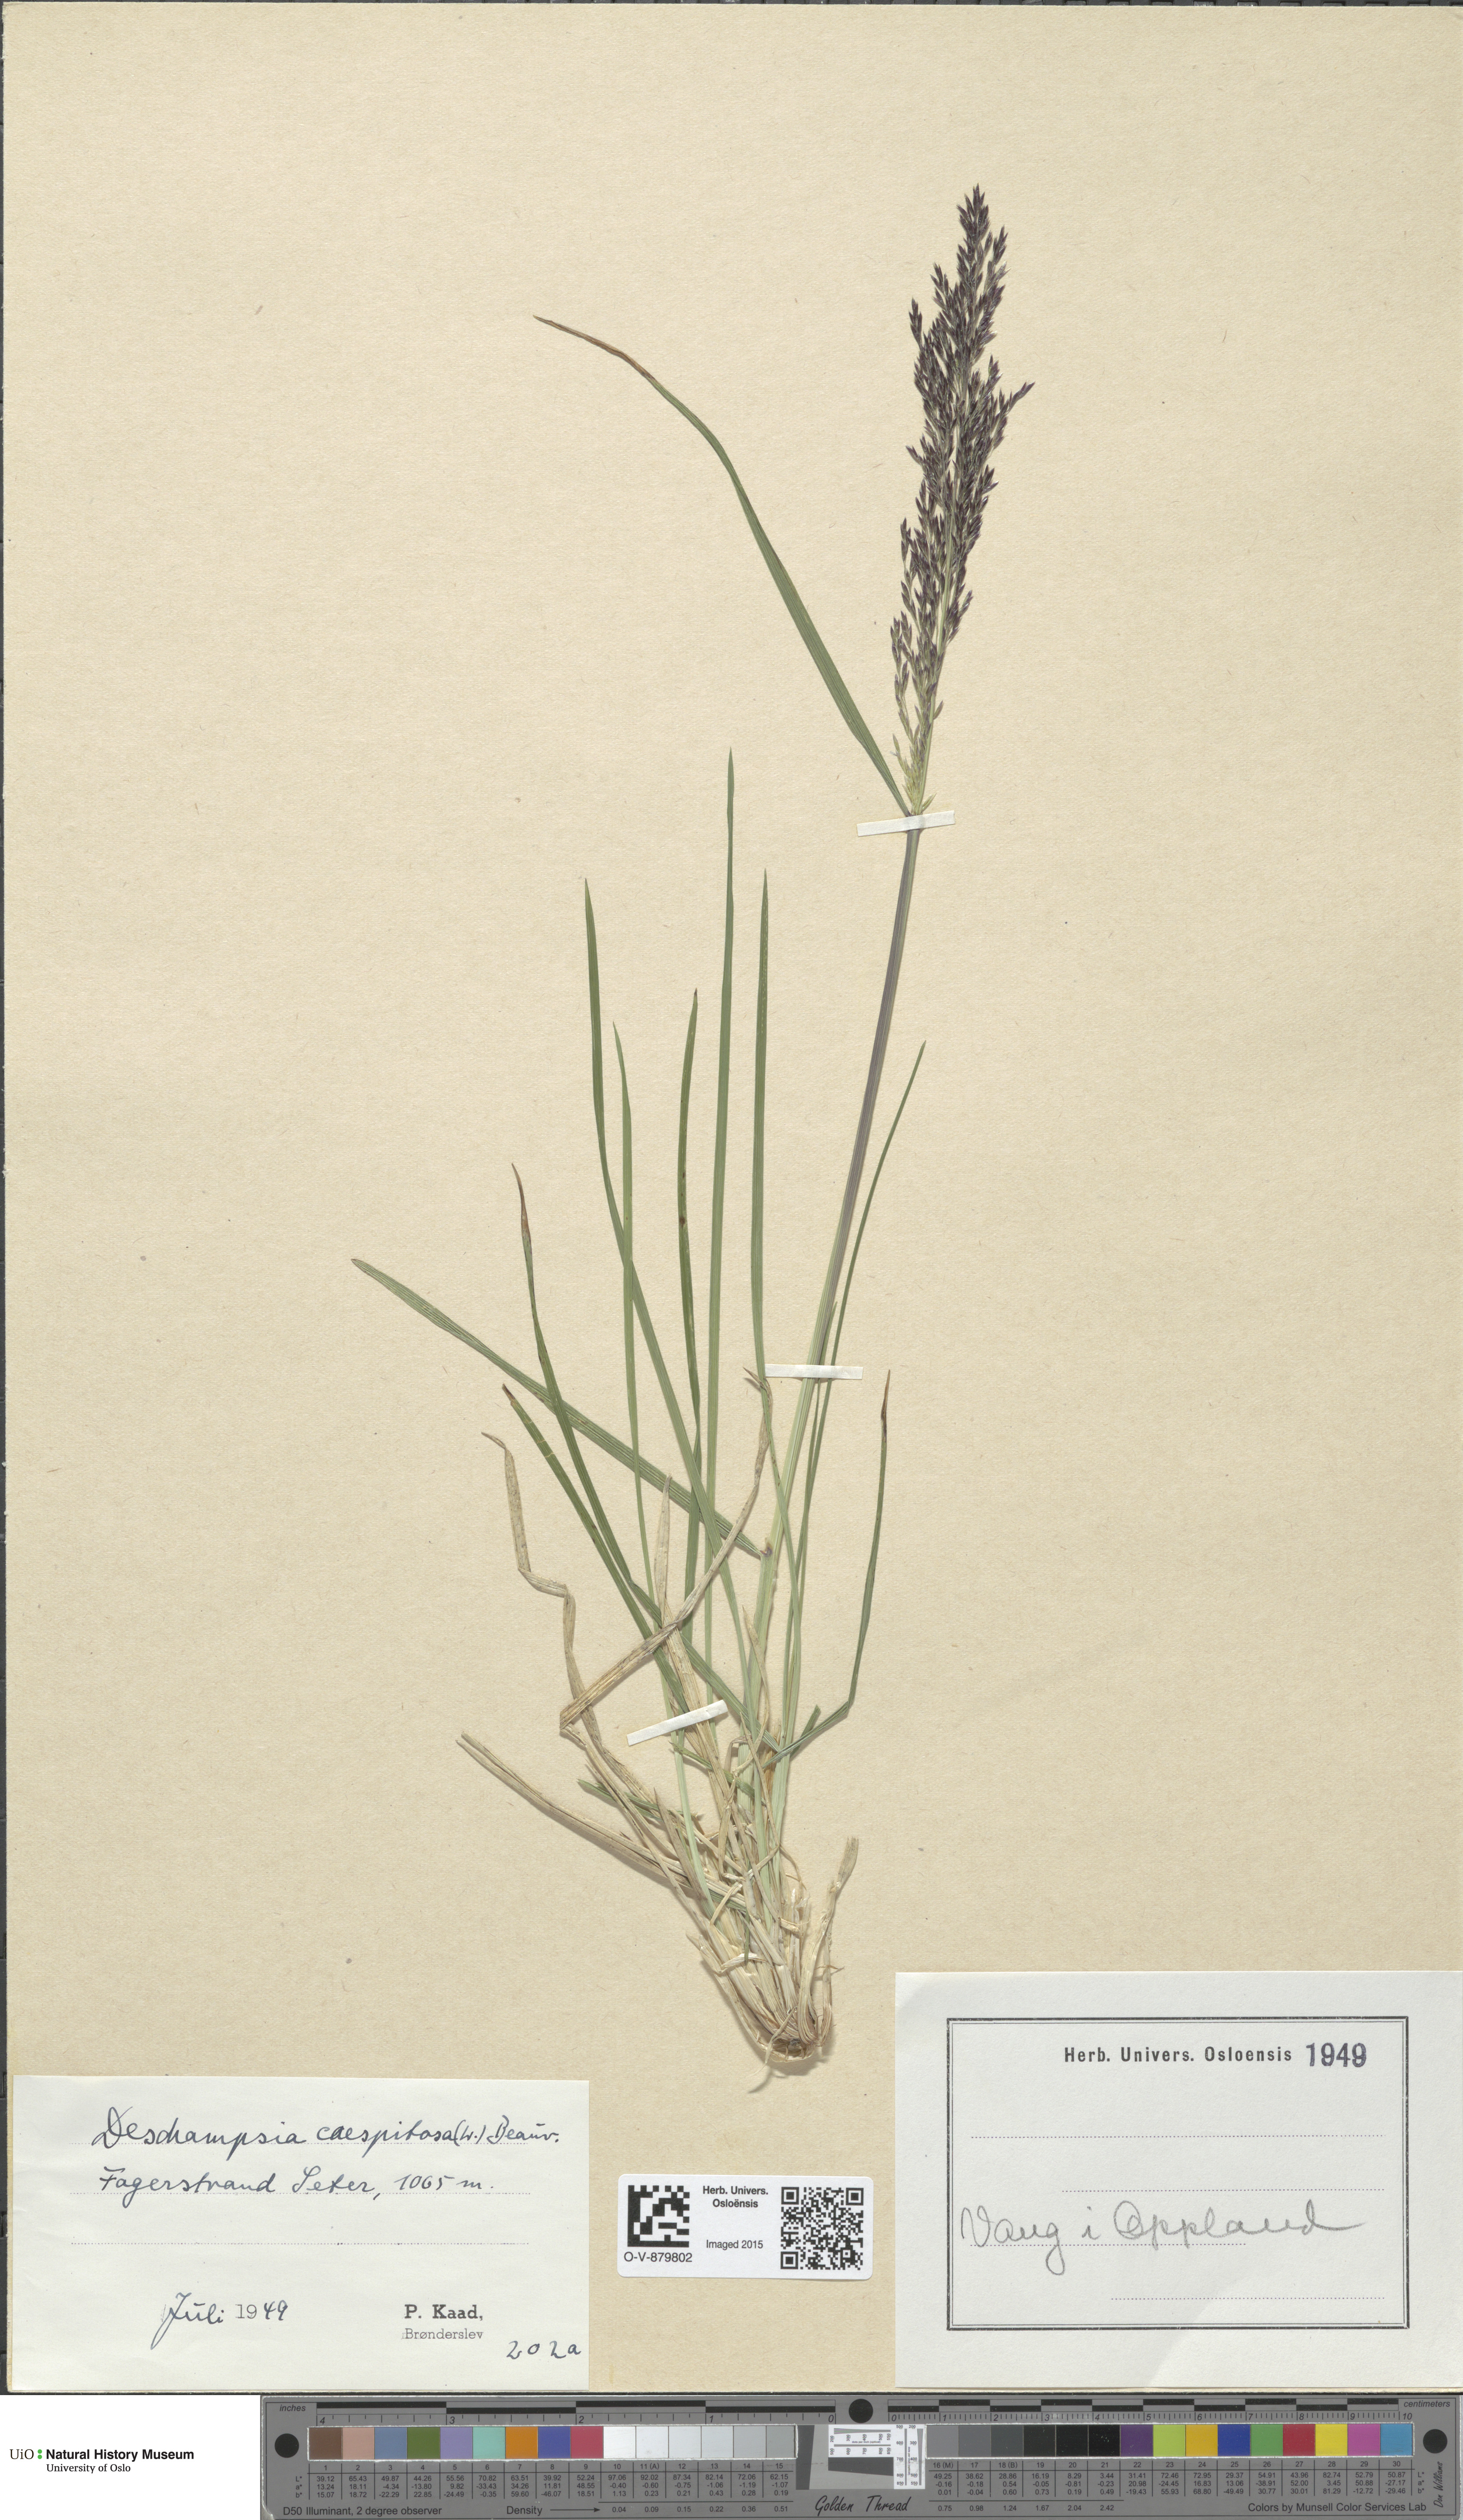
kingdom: Plantae
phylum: Tracheophyta
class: Liliopsida
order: Poales
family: Poaceae
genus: Deschampsia
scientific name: Deschampsia cespitosa
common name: Tufted hair-grass
